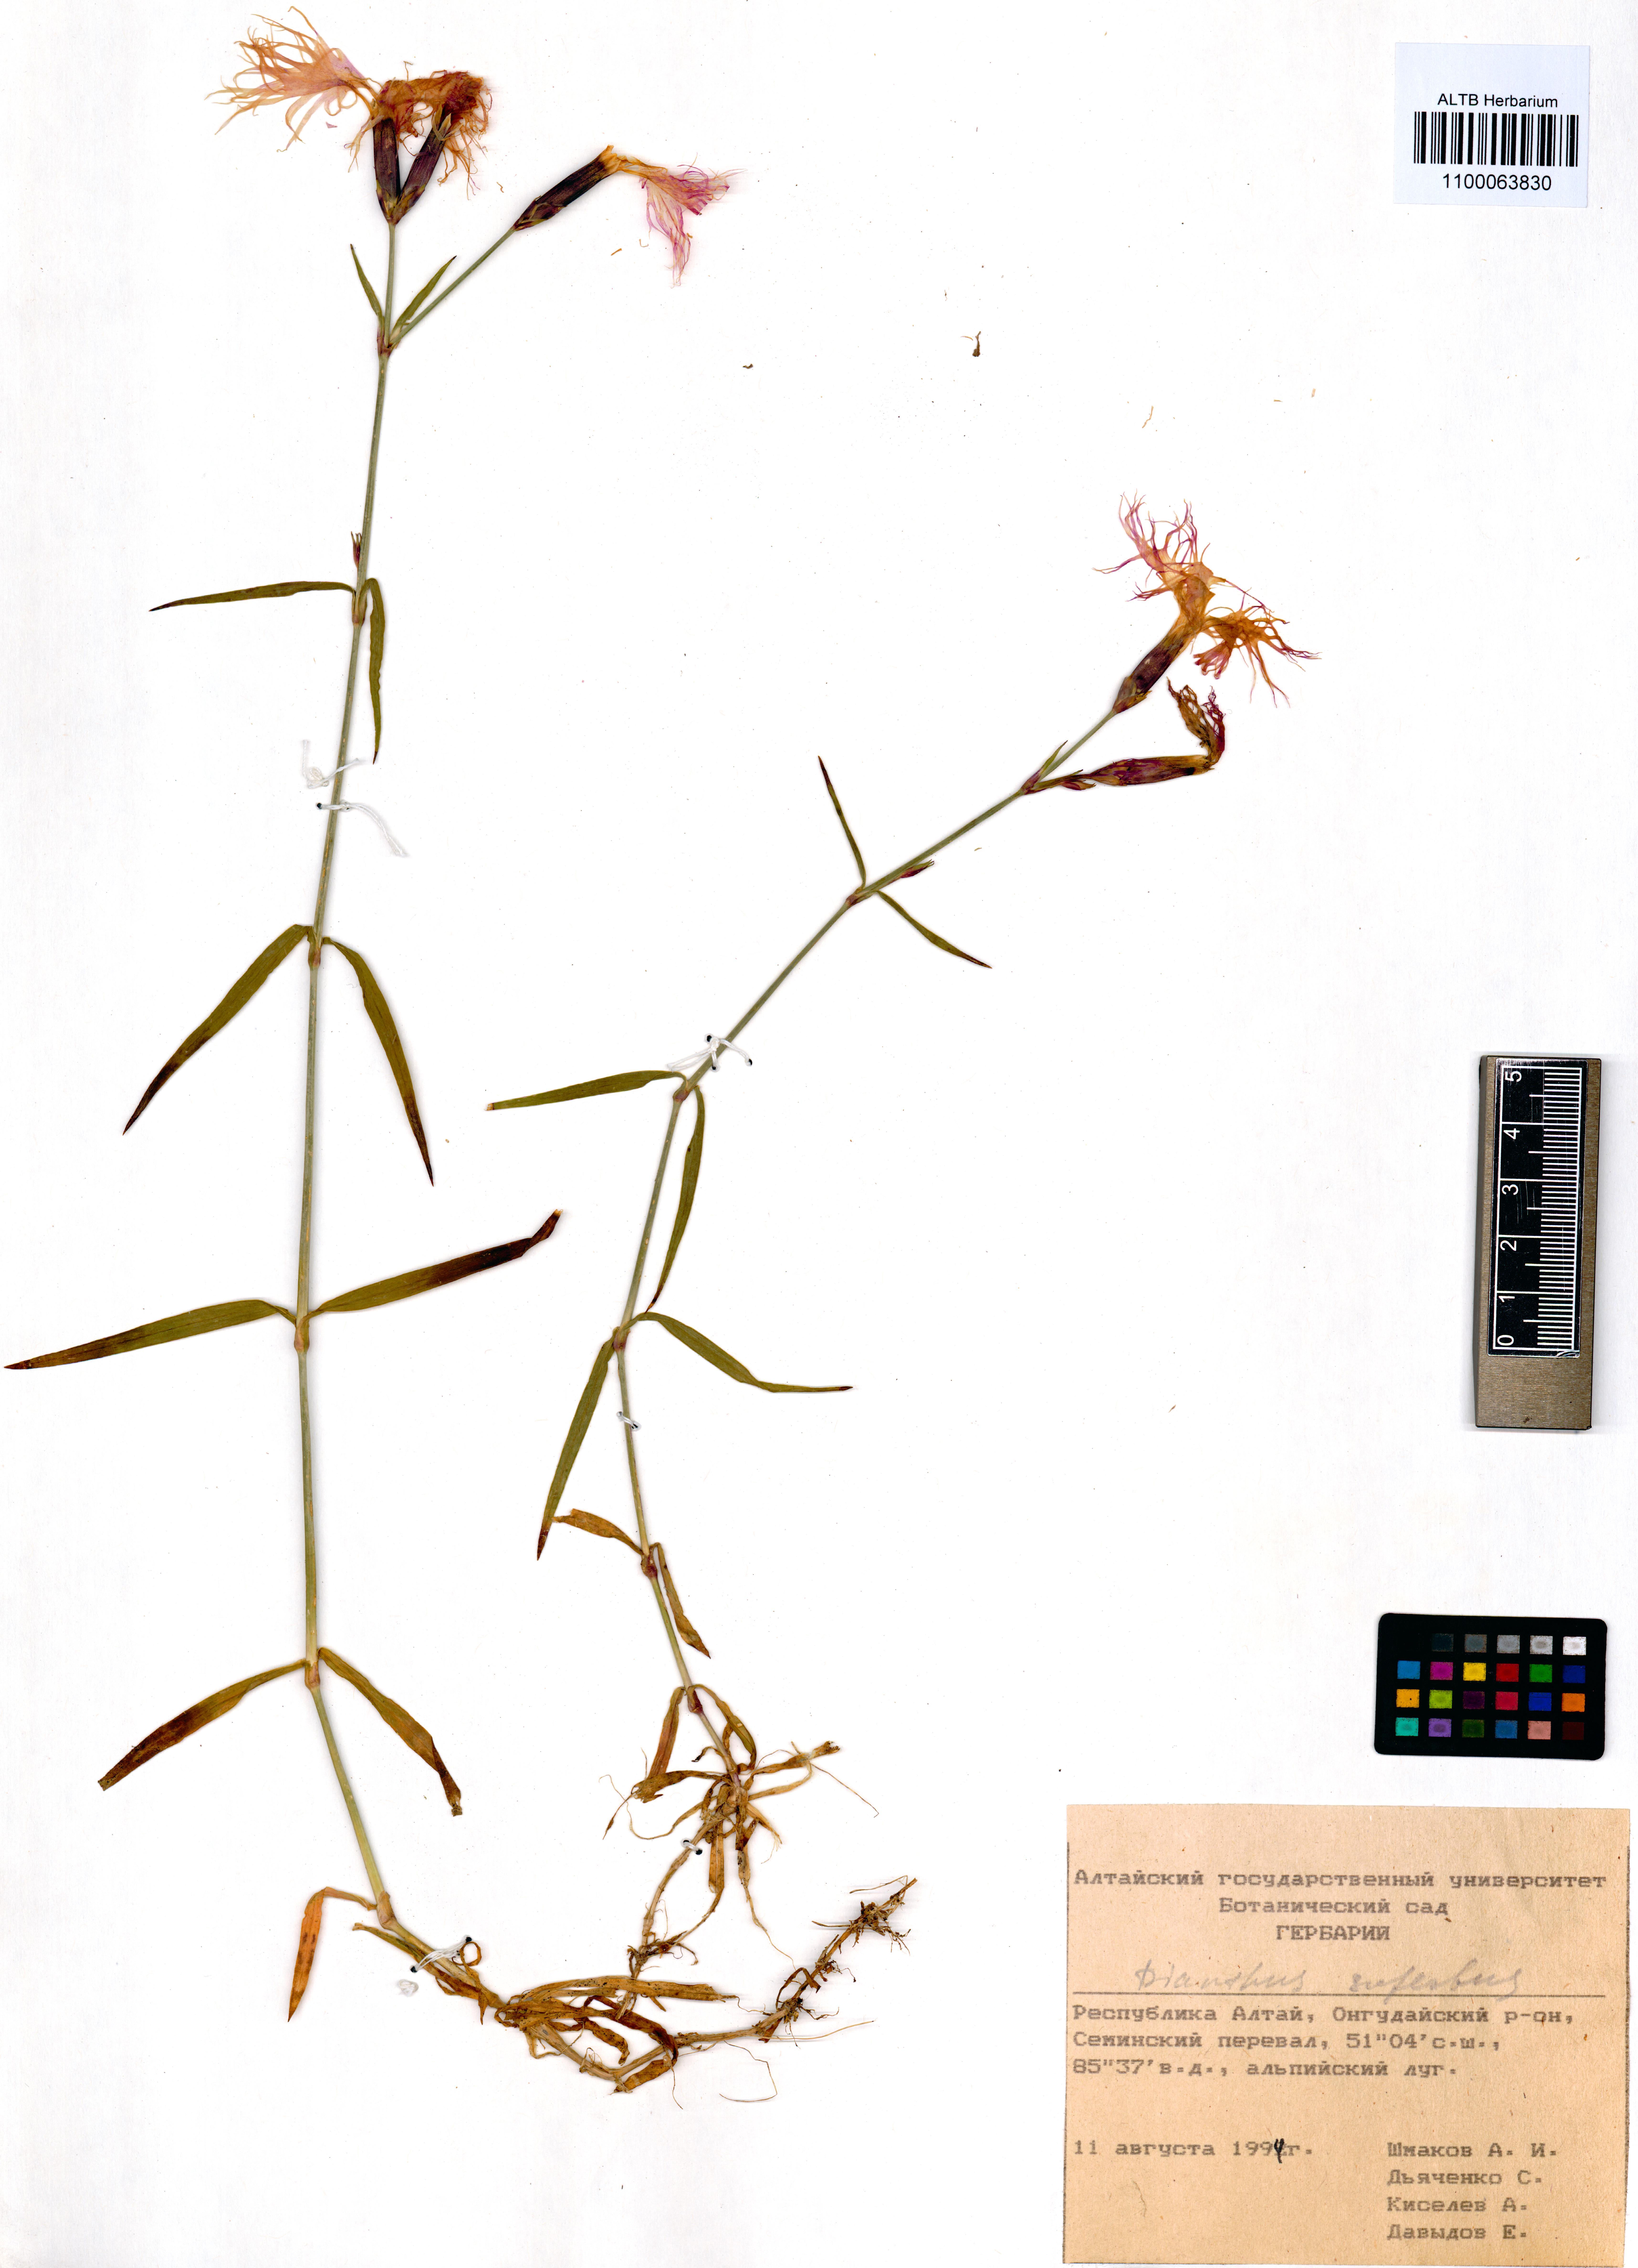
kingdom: Plantae
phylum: Tracheophyta
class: Magnoliopsida
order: Caryophyllales
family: Caryophyllaceae
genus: Dianthus
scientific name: Dianthus superbus
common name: Fringed pink
